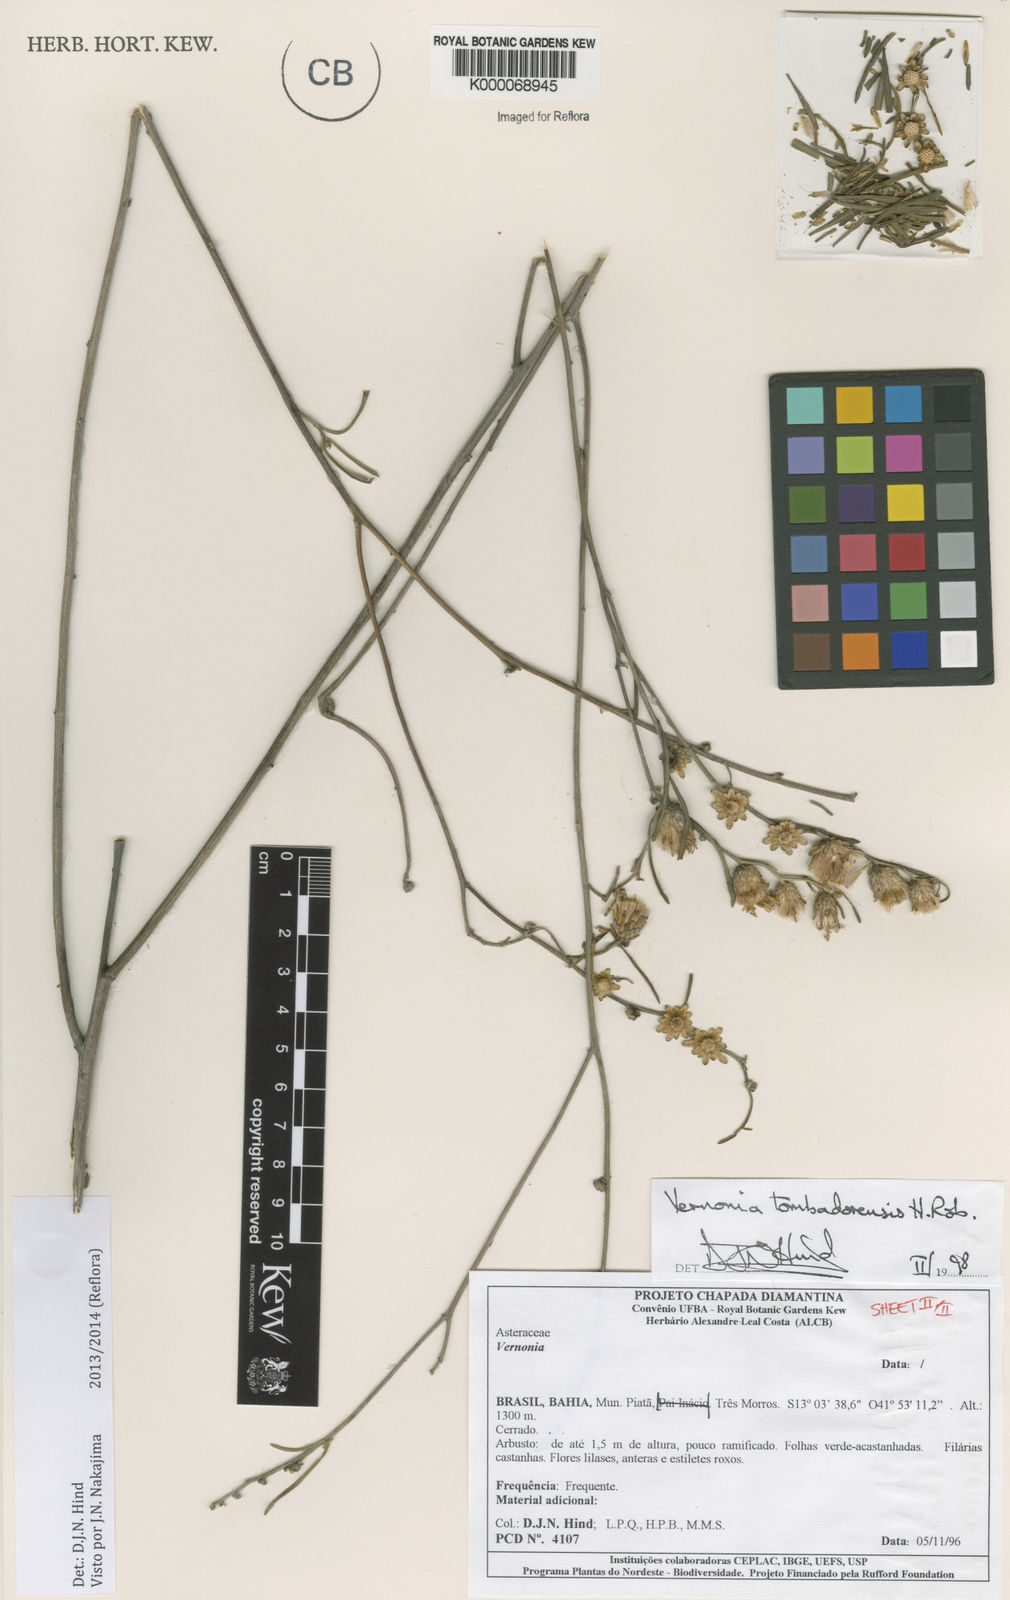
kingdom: Plantae
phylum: Tracheophyta
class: Magnoliopsida
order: Asterales
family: Asteraceae
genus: Lepidaploa
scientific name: Lepidaploa tombadorensis
